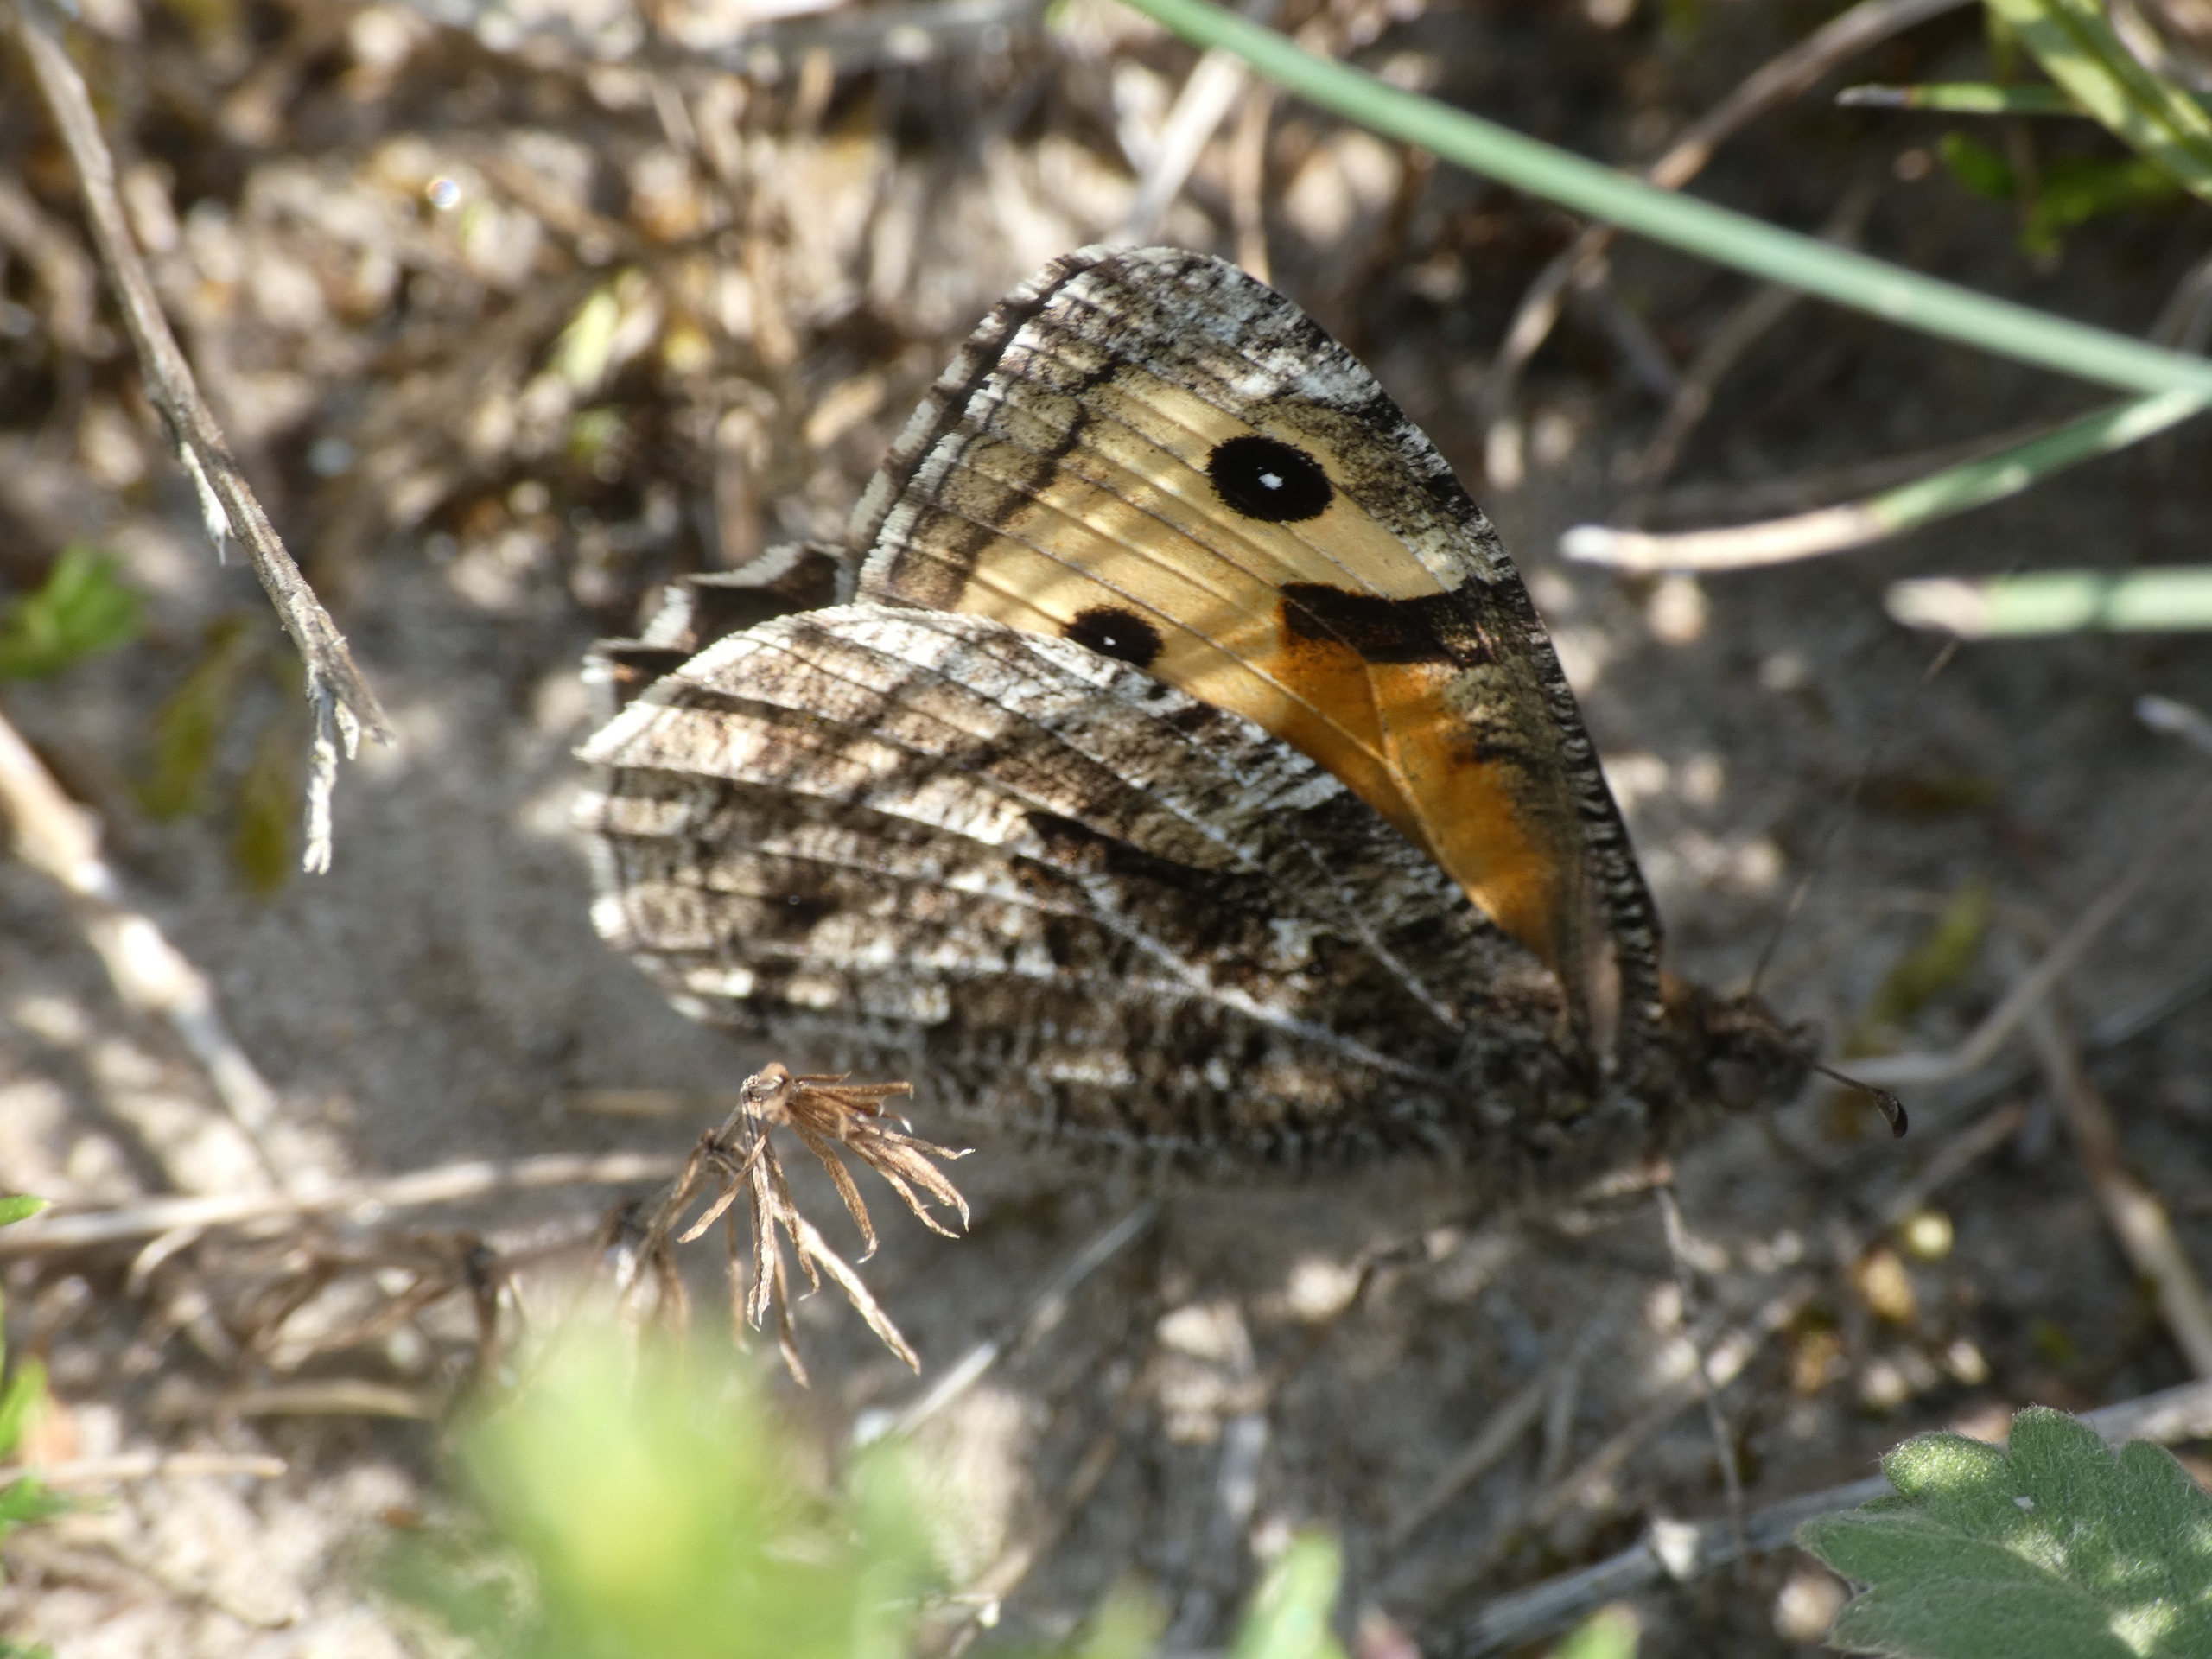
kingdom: Animalia
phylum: Arthropoda
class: Insecta
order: Lepidoptera
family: Nymphalidae
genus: Hipparchia
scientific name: Hipparchia semele
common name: Sandrandøje
